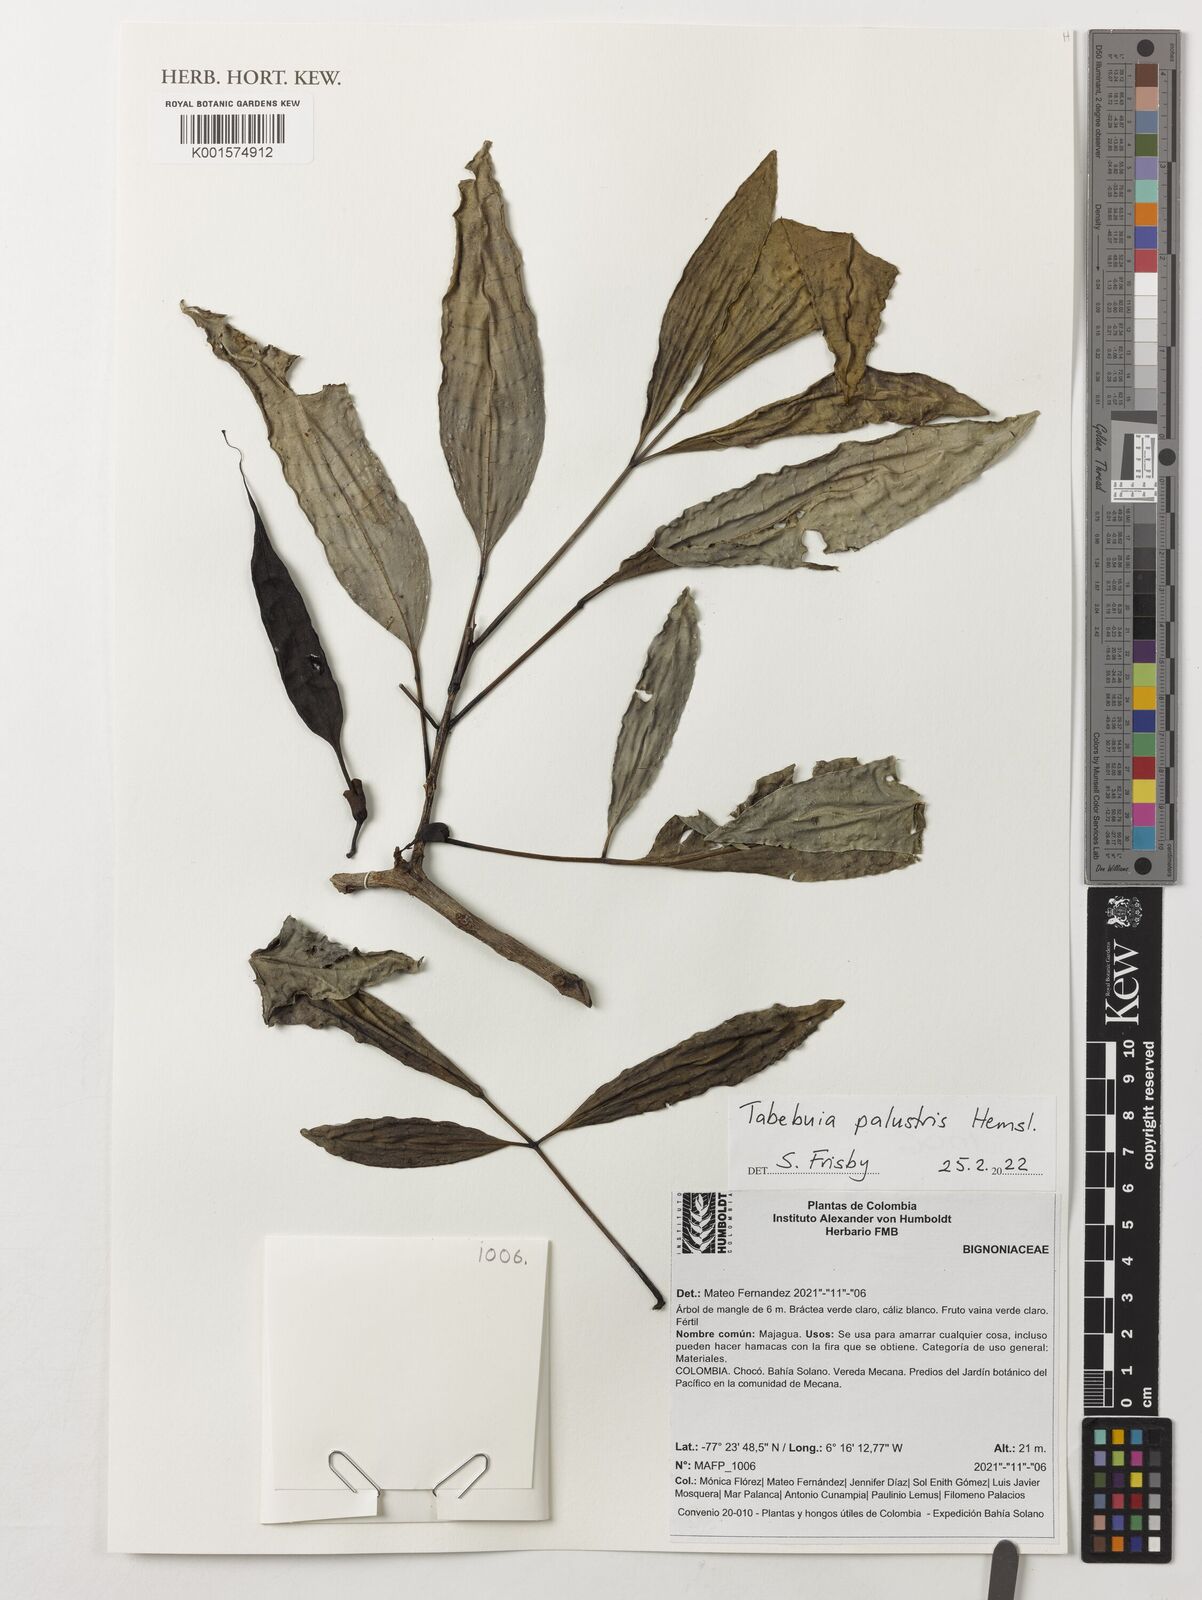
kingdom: Plantae
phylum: Tracheophyta
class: Magnoliopsida
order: Lamiales
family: Bignoniaceae
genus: Tabebuia
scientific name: Tabebuia palustris
